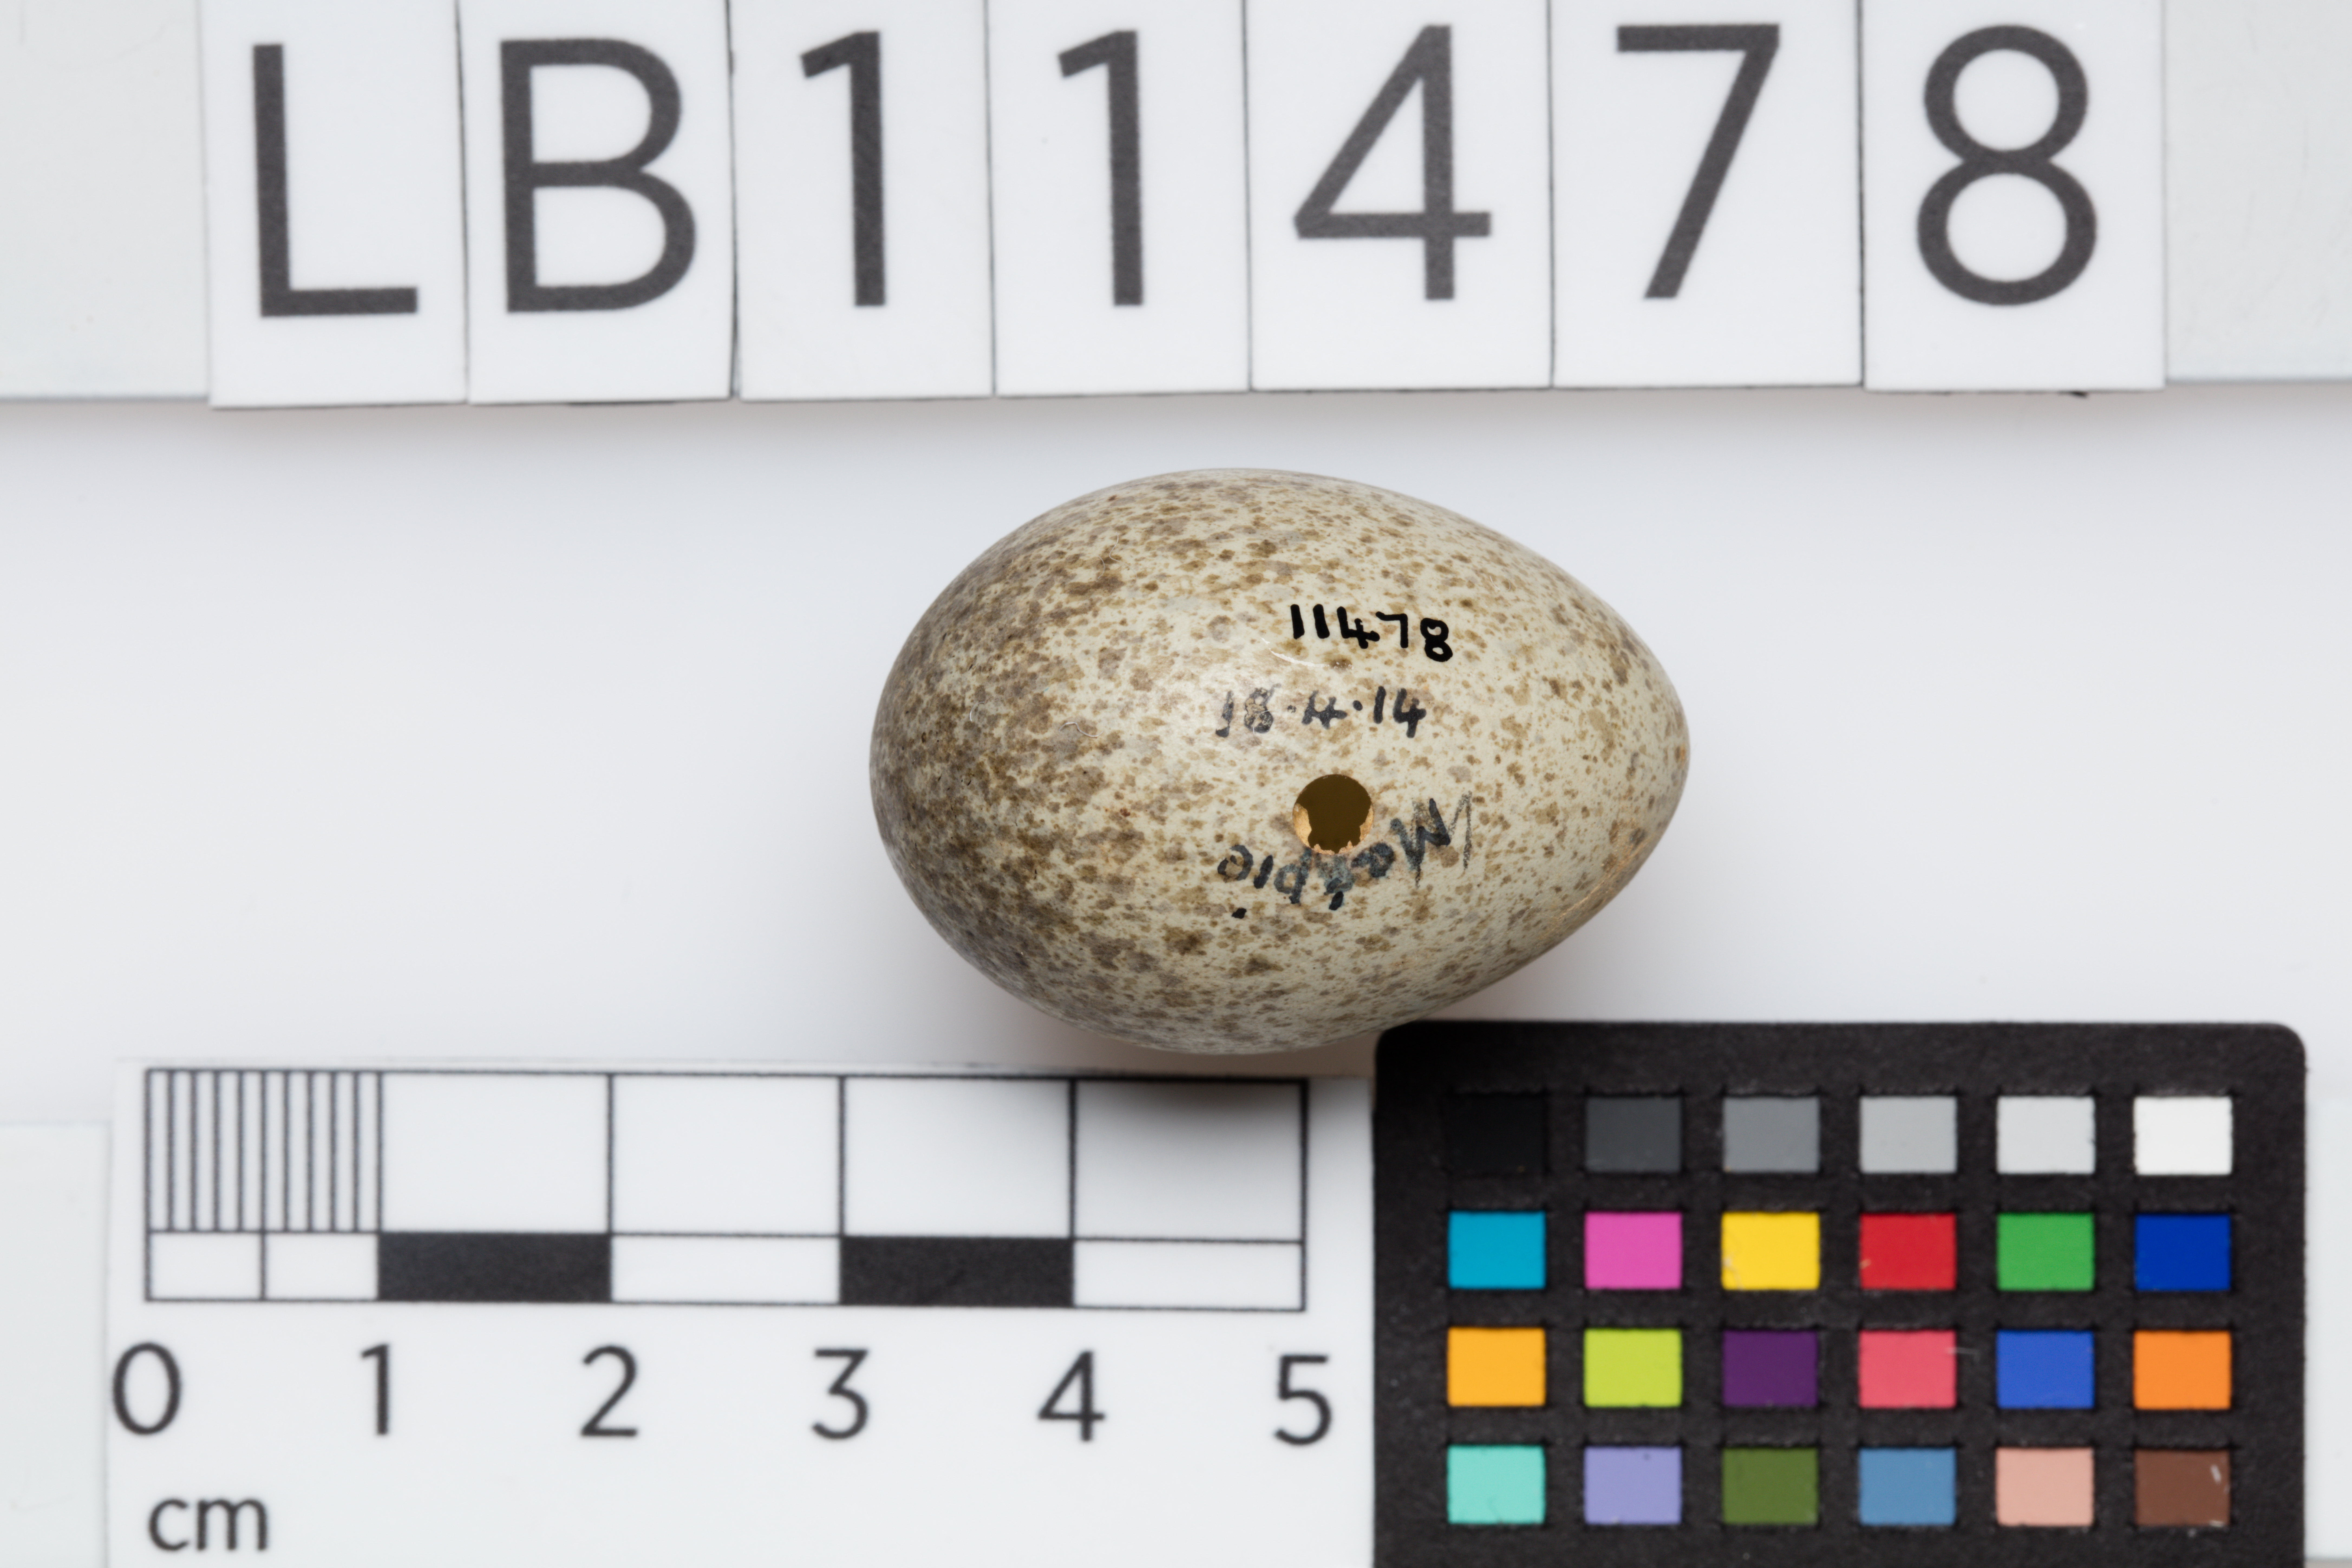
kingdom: Animalia
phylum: Chordata
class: Aves
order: Passeriformes
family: Corvidae
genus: Pica
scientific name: Pica pica
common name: Eurasian magpie
